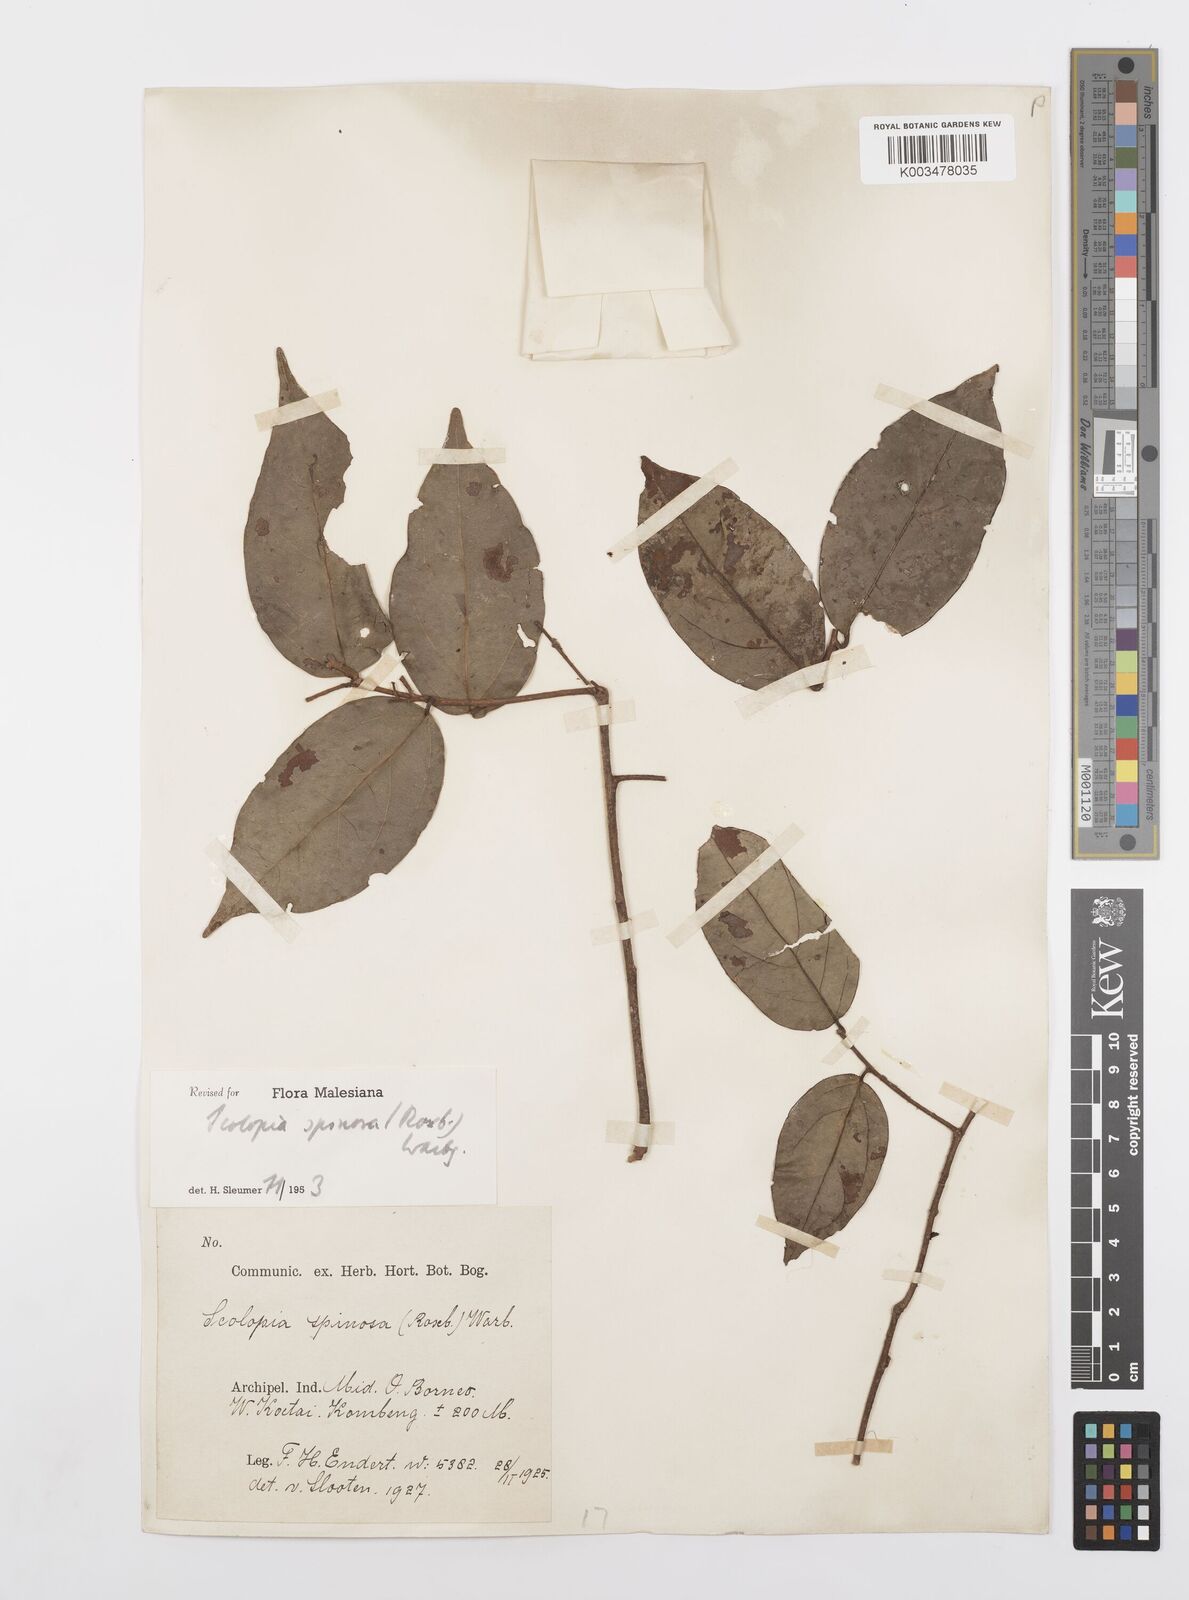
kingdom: Plantae
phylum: Tracheophyta
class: Magnoliopsida
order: Malpighiales
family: Salicaceae
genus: Scolopia
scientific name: Scolopia spinosa
